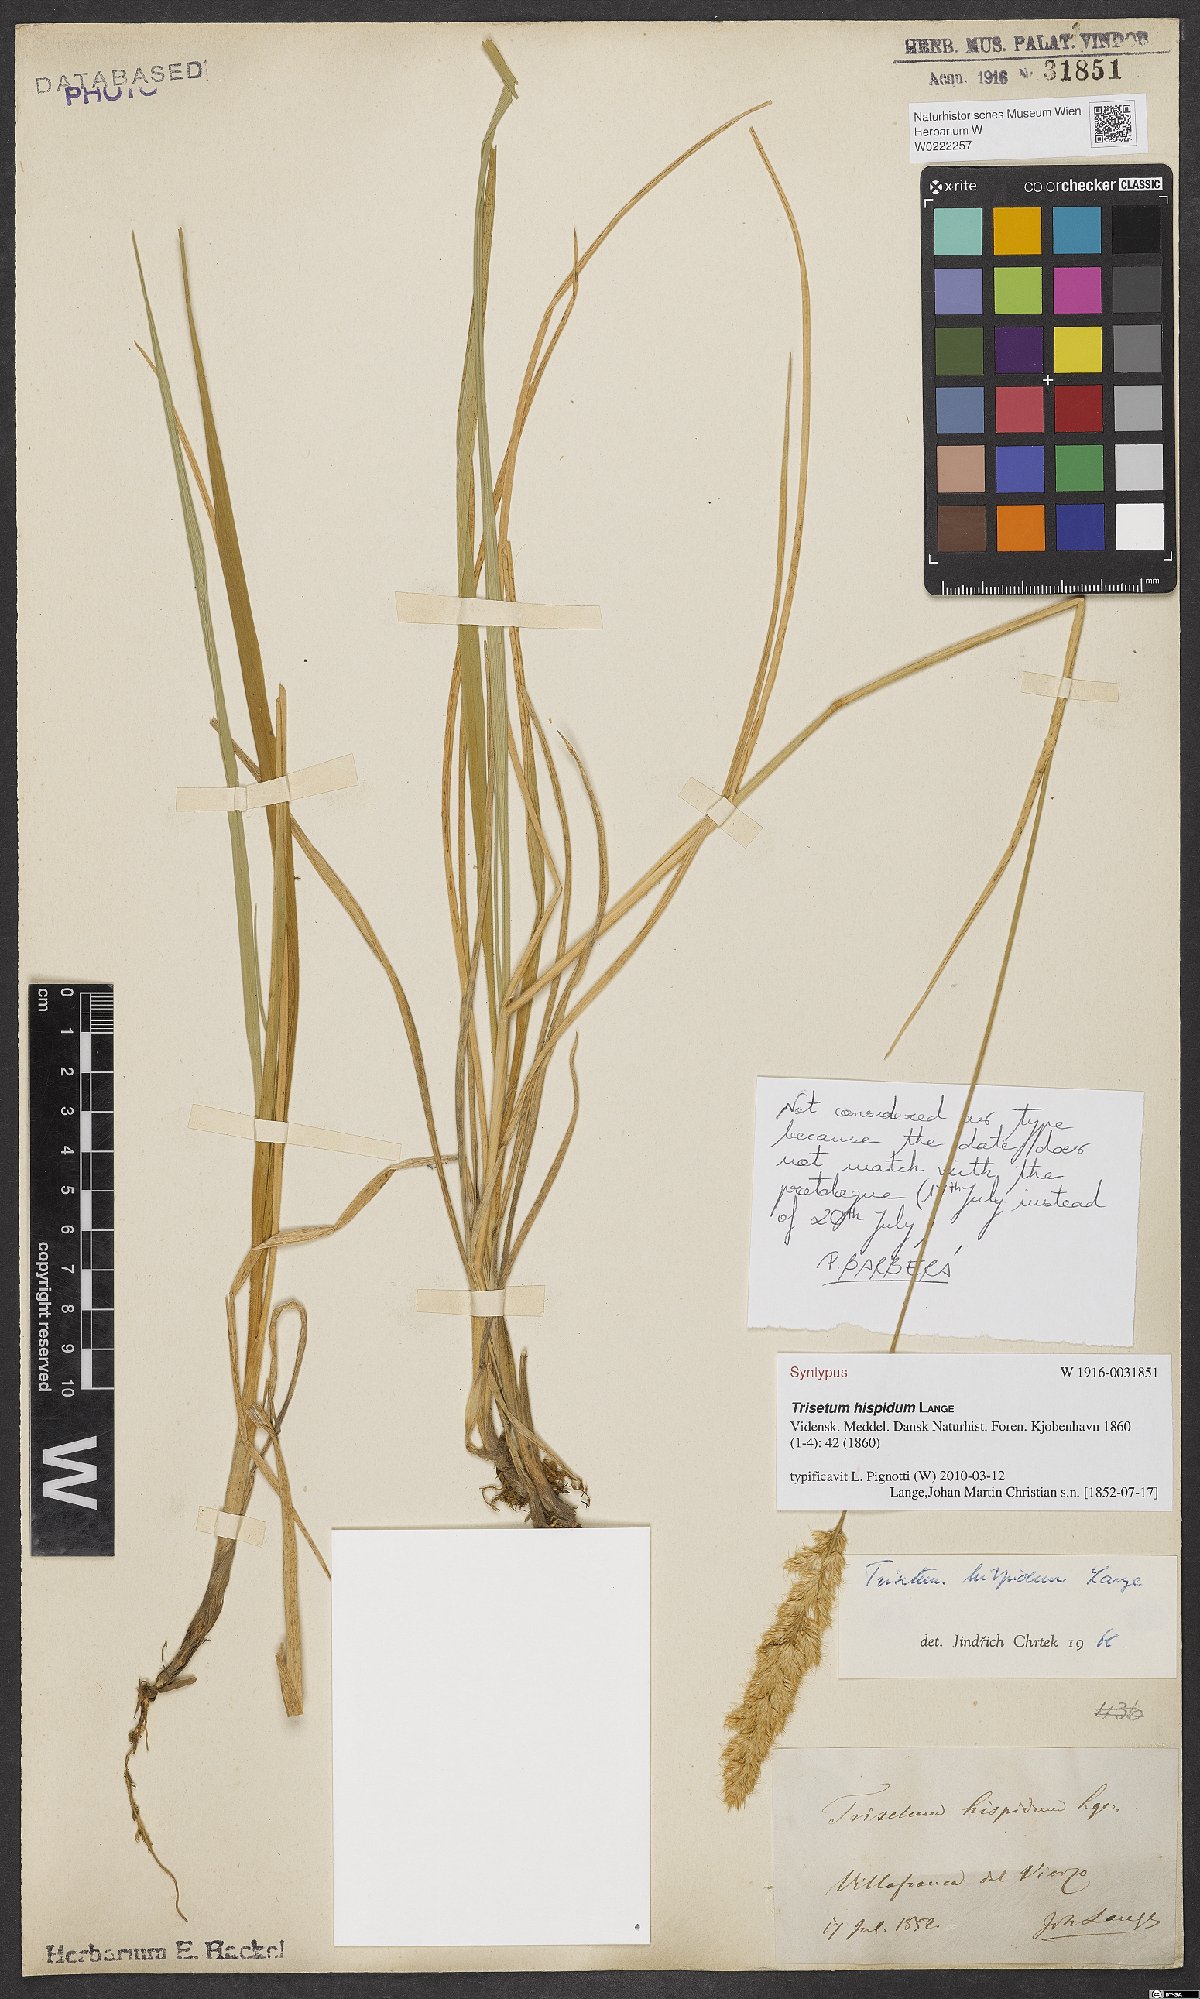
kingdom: Plantae
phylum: Tracheophyta
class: Liliopsida
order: Poales
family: Poaceae
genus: Koeleria
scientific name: Koeleria hispanica
